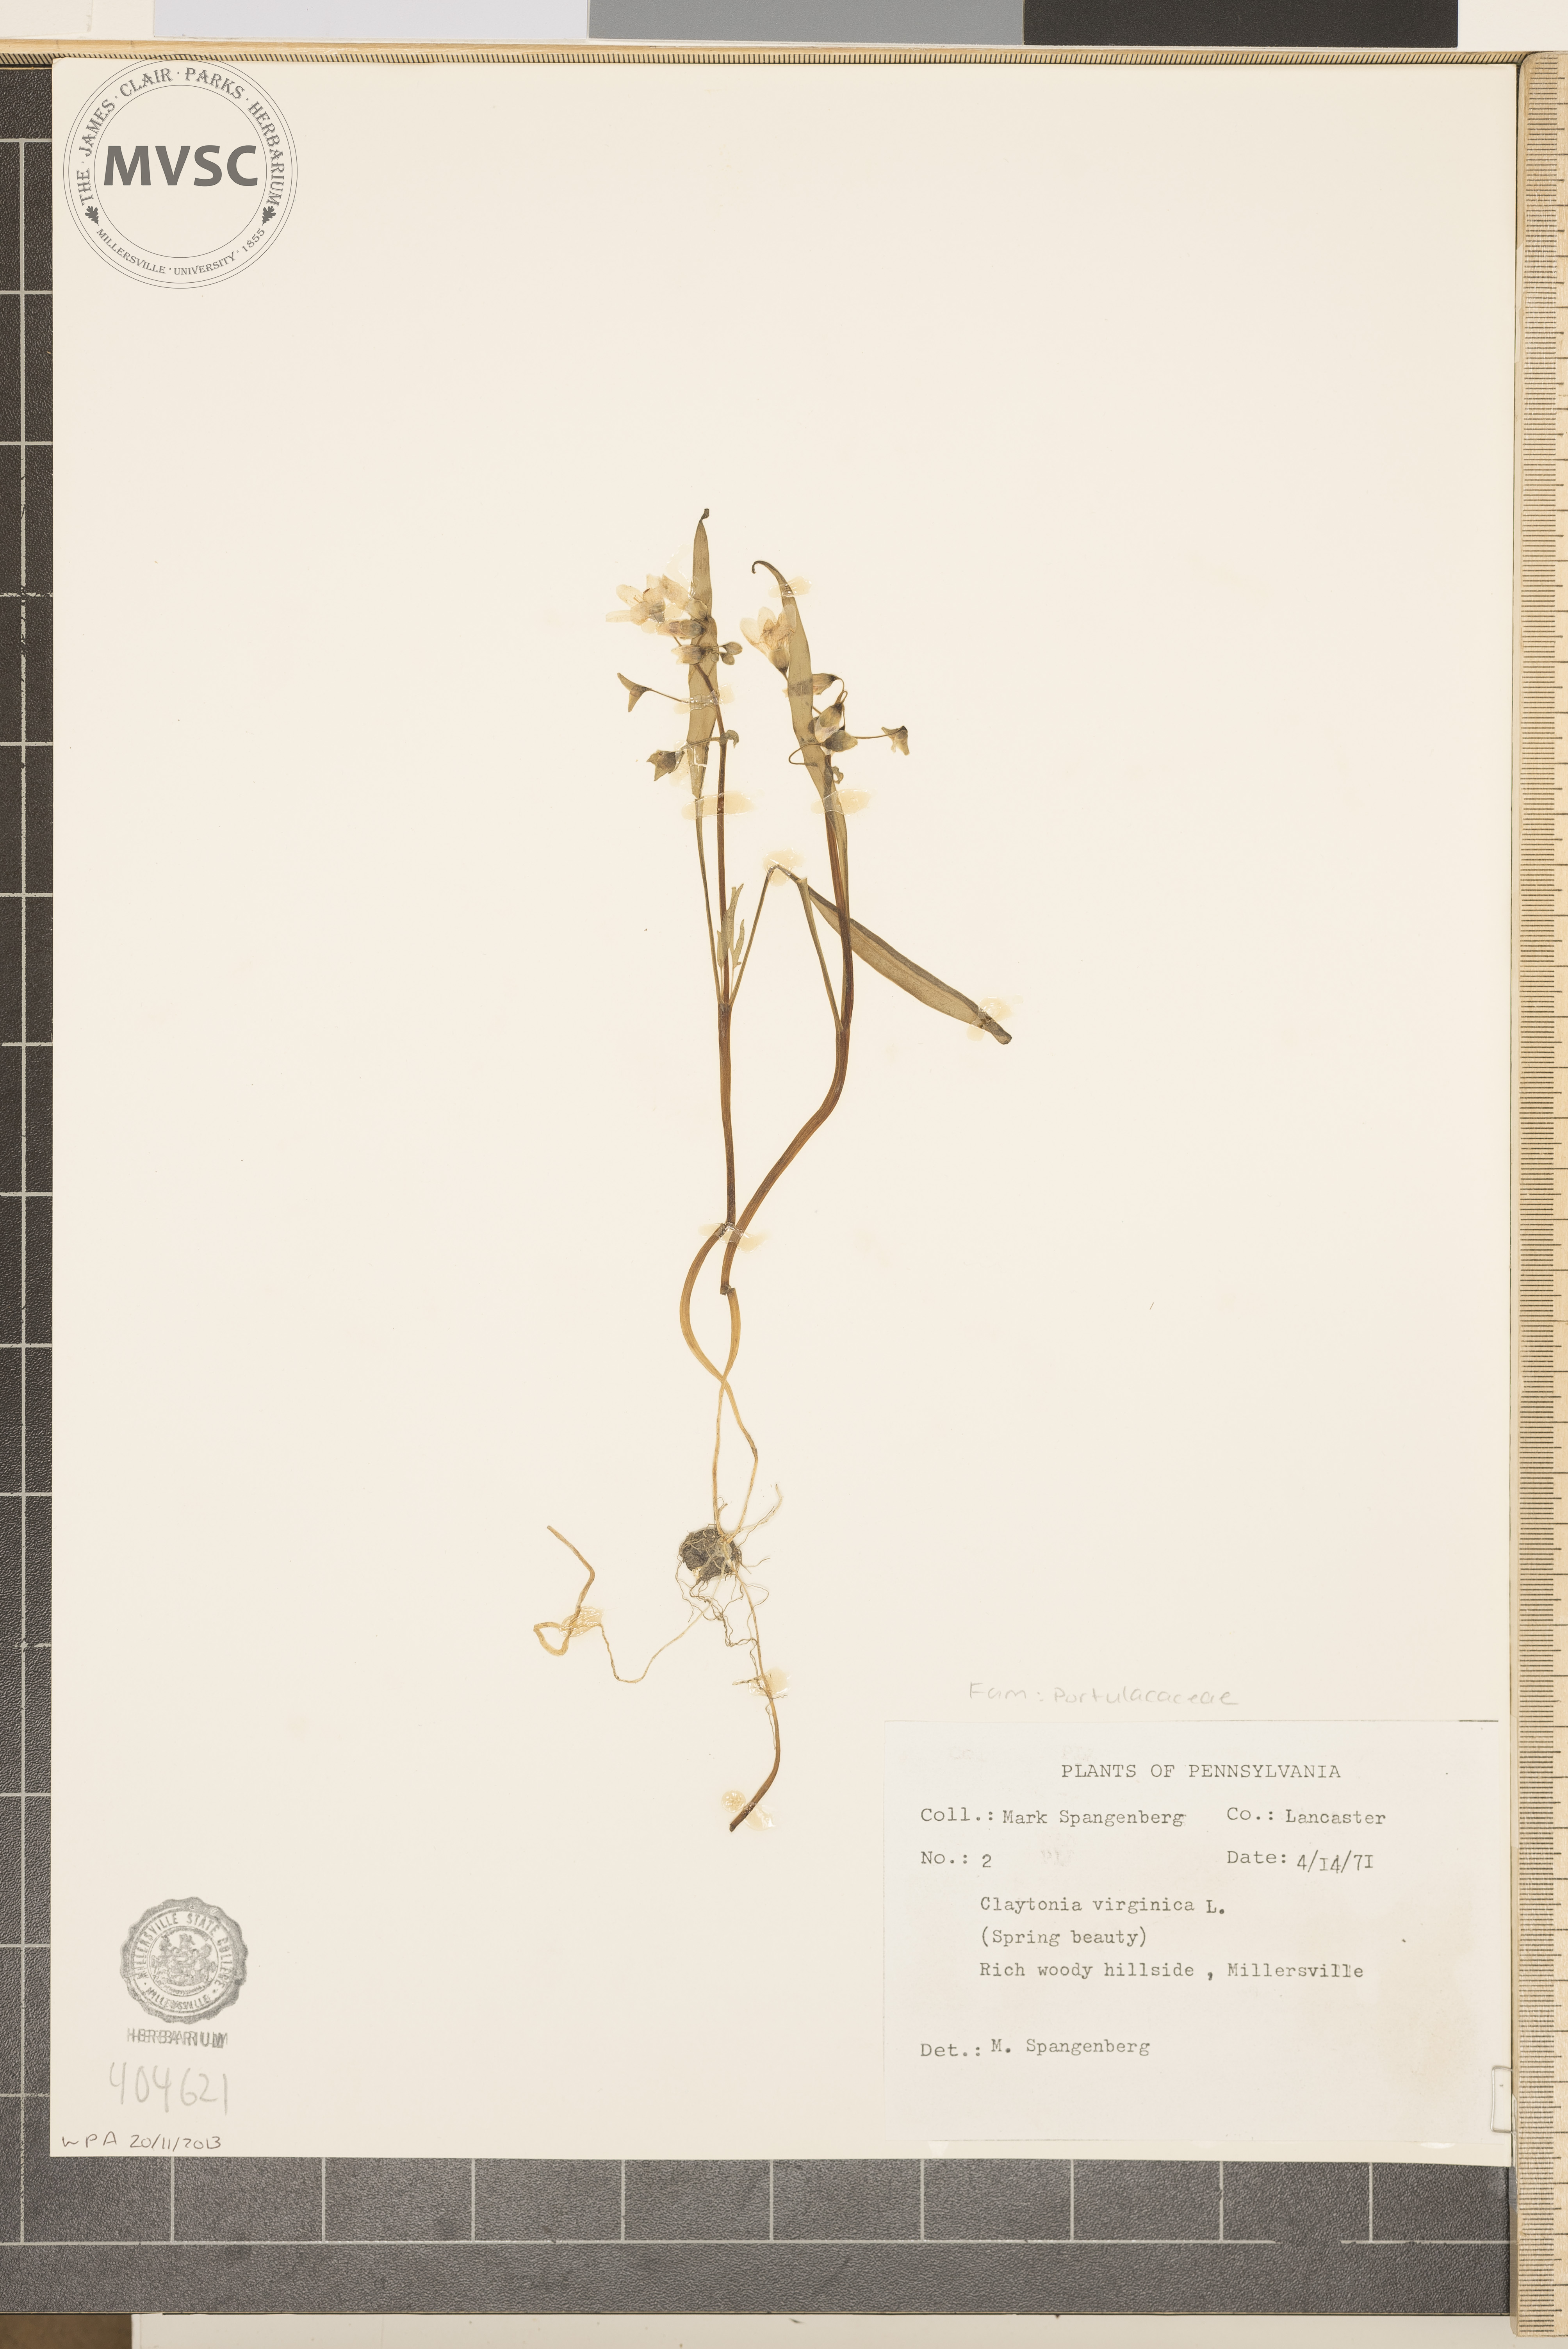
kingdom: Plantae
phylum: Tracheophyta
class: Magnoliopsida
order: Caryophyllales
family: Montiaceae
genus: Claytonia
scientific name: Claytonia virginica
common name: Spring Beauty
